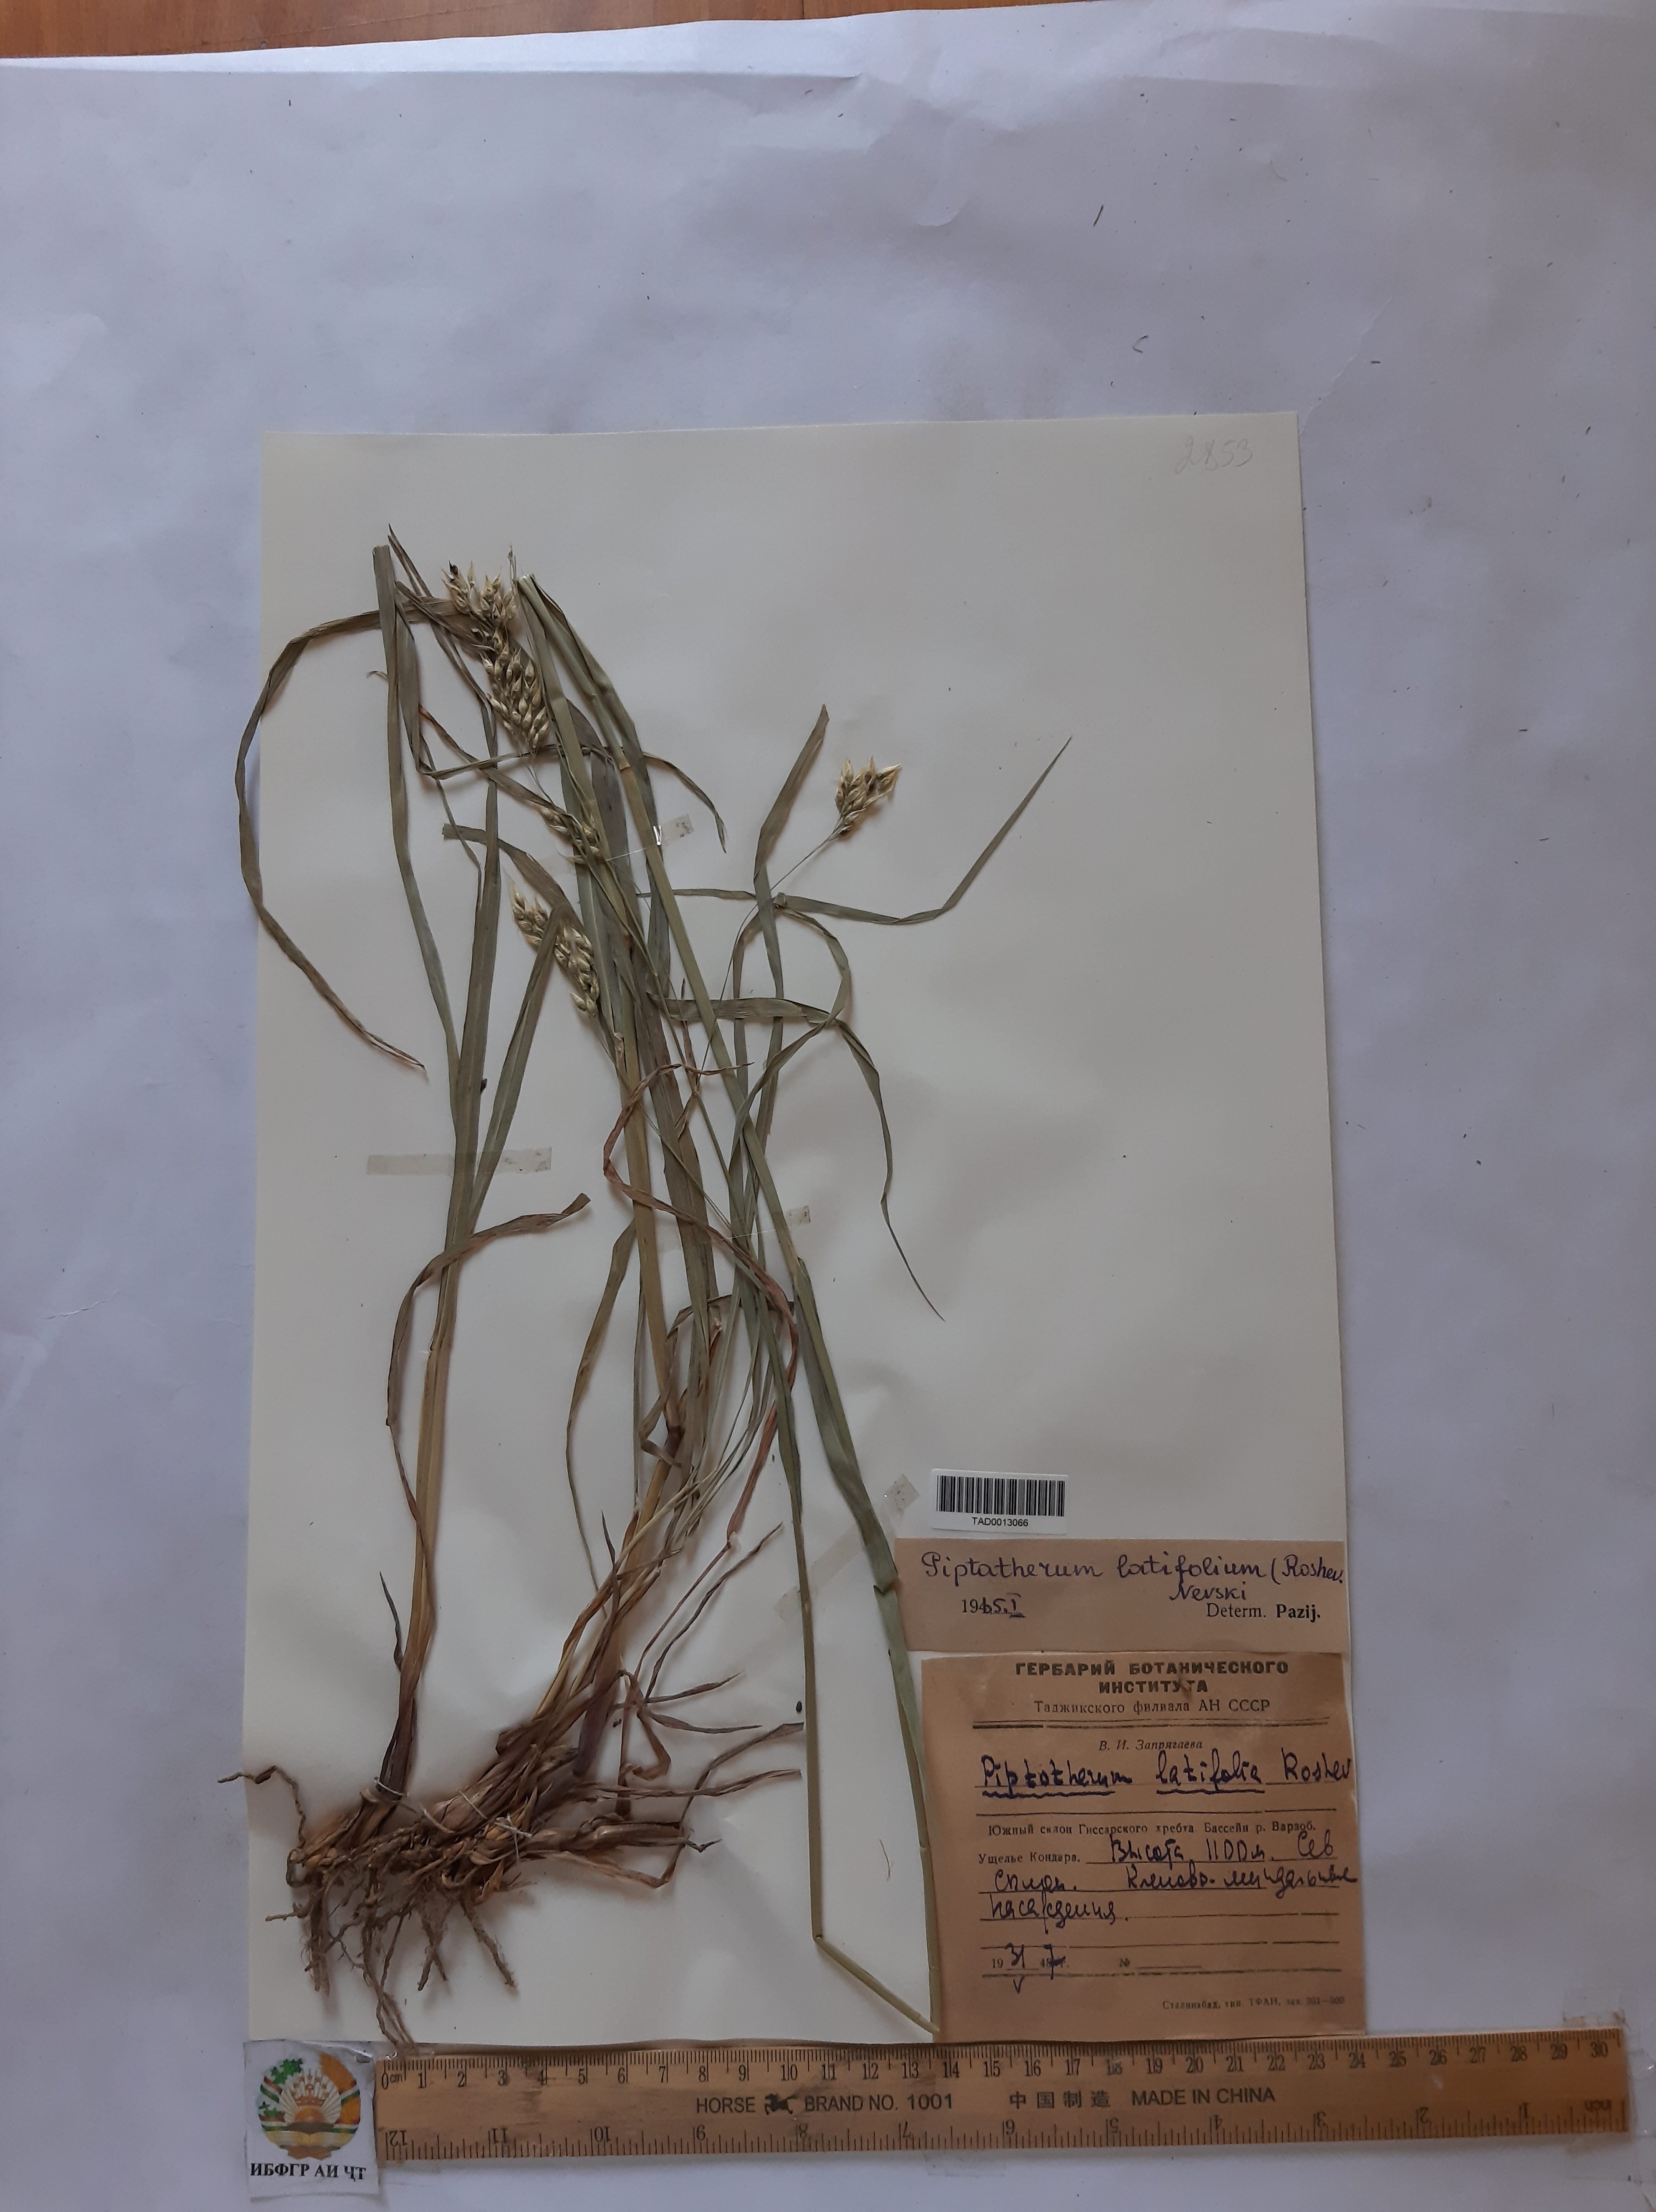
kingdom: Plantae
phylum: Tracheophyta
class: Liliopsida
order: Poales
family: Poaceae
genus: Piptatherum
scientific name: Piptatherum laterale
